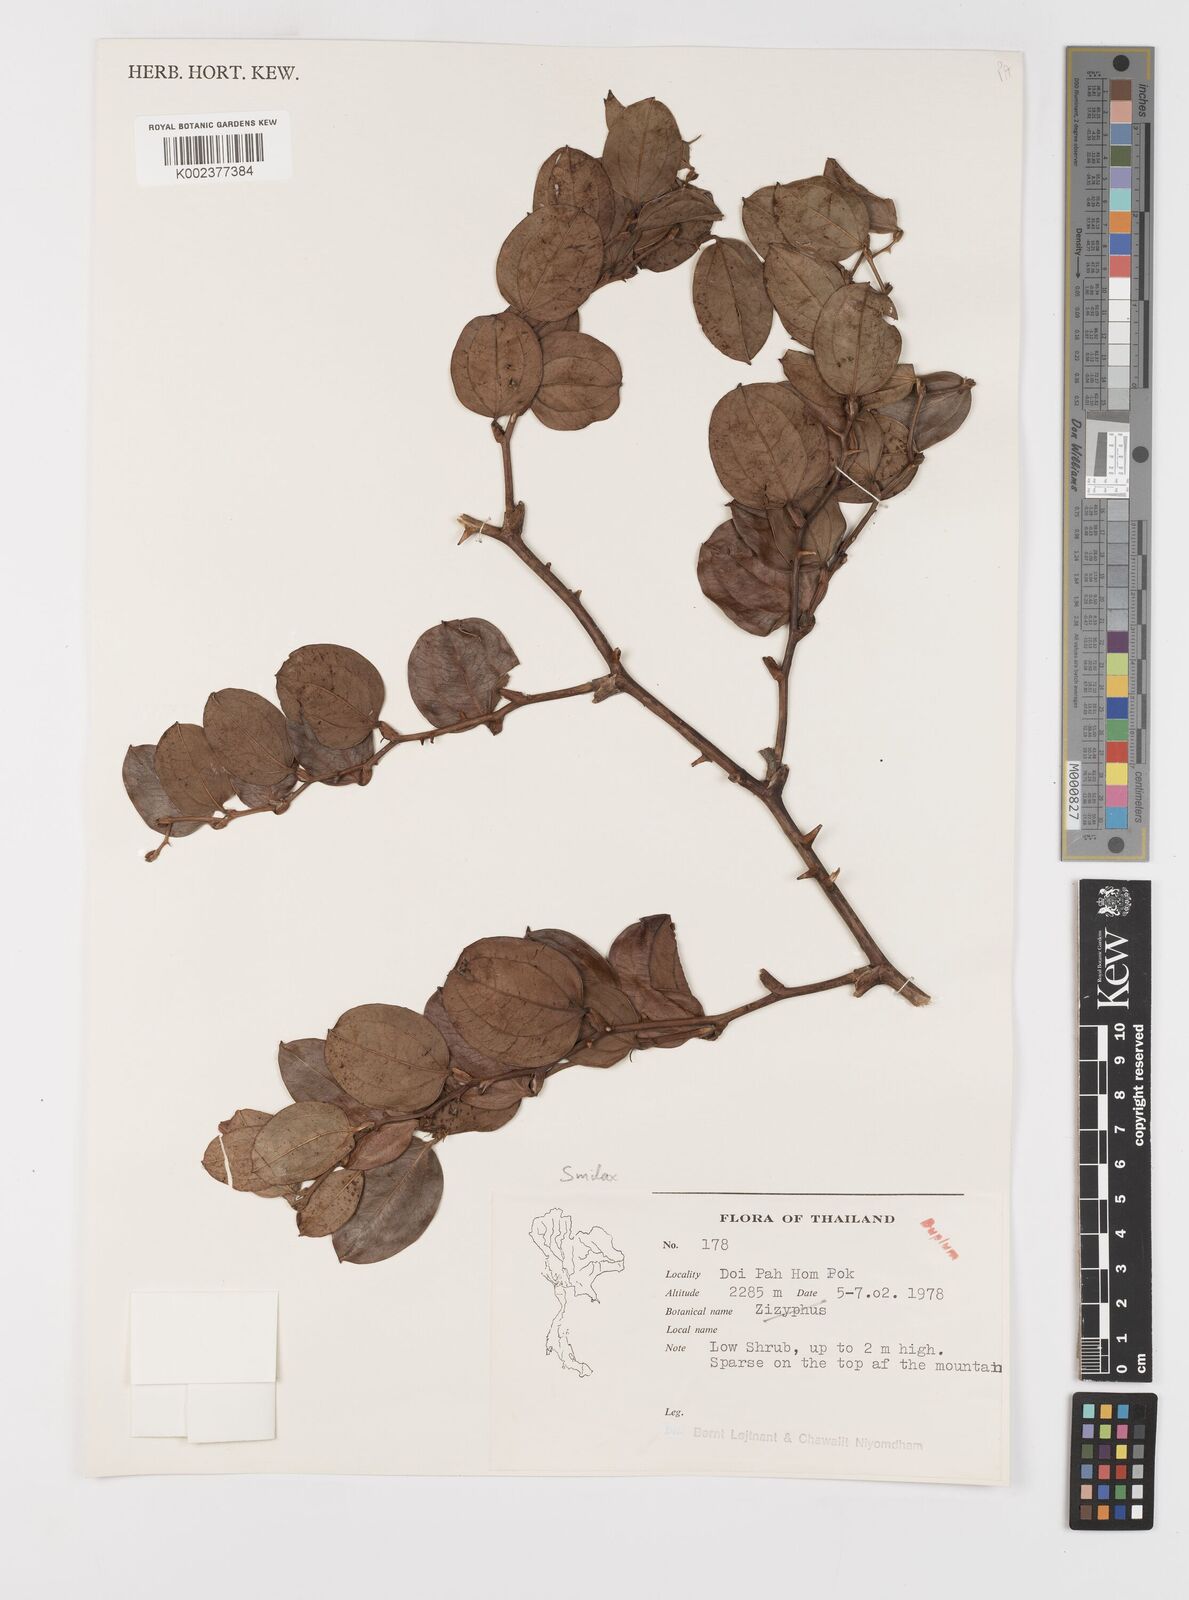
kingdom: Plantae
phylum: Tracheophyta
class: Liliopsida
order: Liliales
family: Smilacaceae
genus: Smilax
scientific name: Smilax
